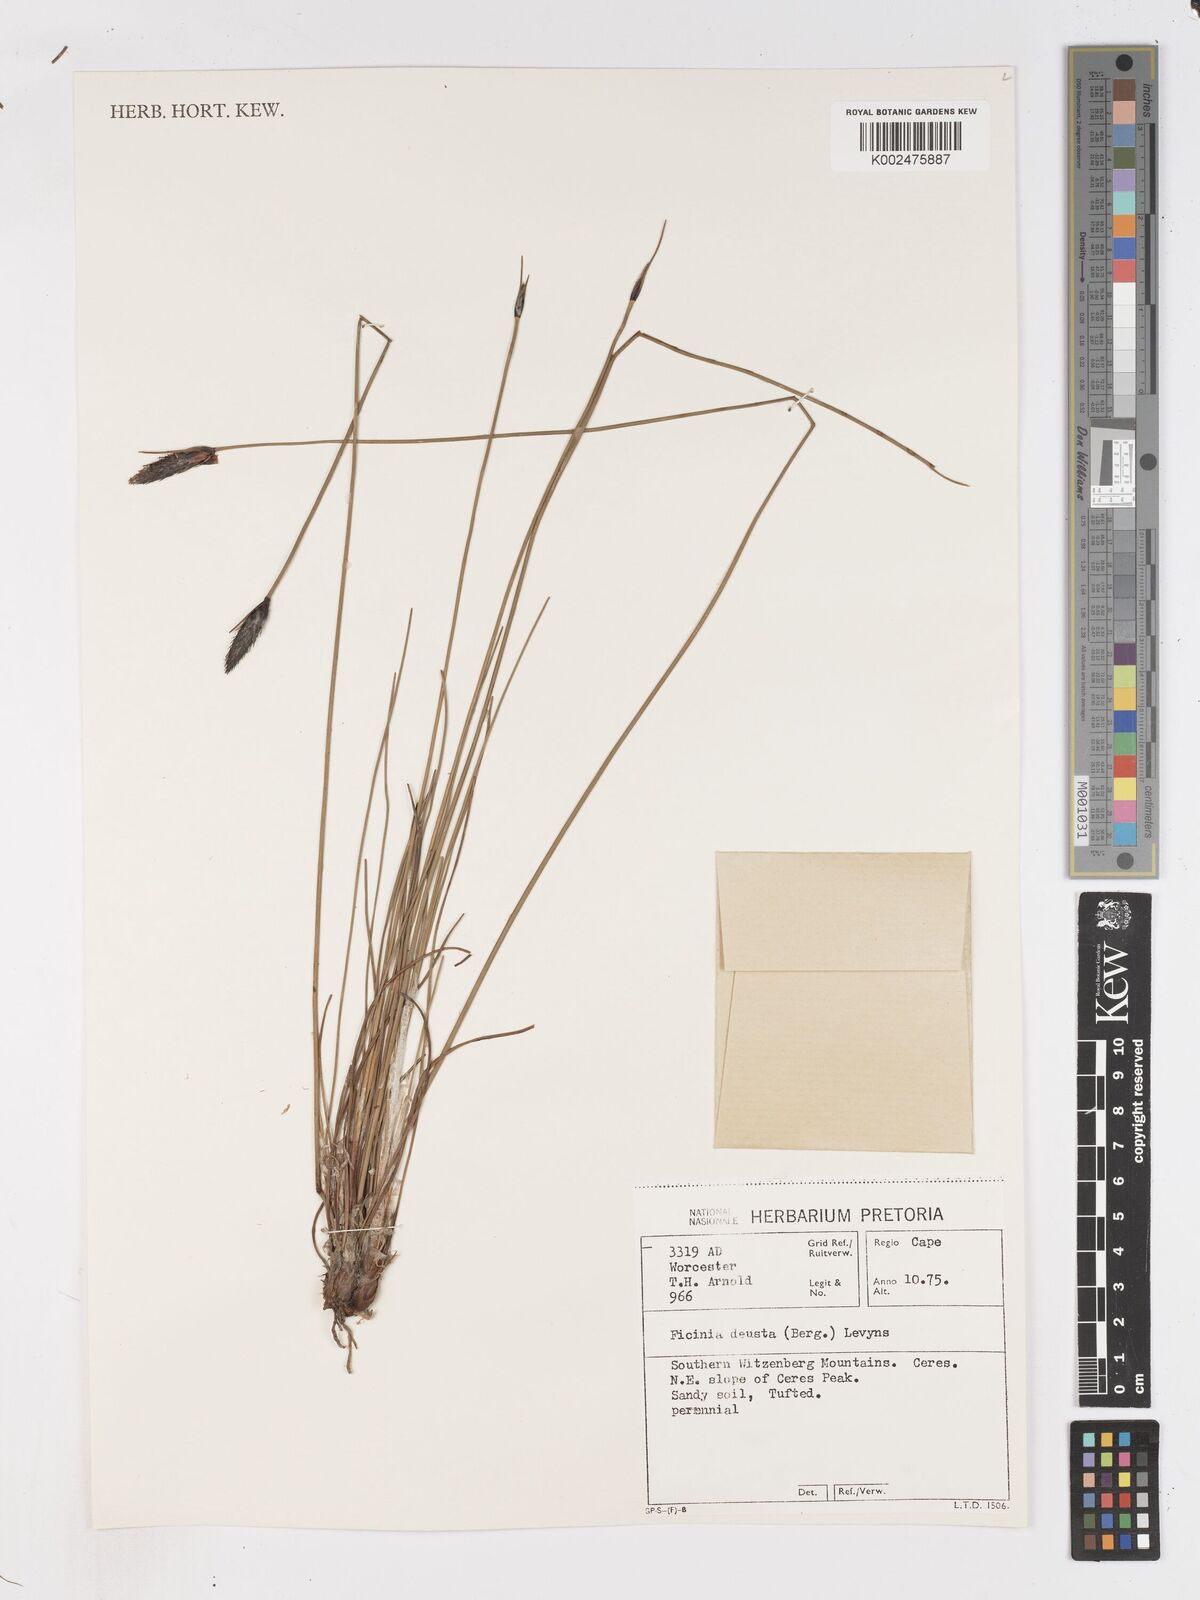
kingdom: Plantae
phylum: Tracheophyta
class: Liliopsida
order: Poales
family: Cyperaceae
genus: Ficinia
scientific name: Ficinia deusta
